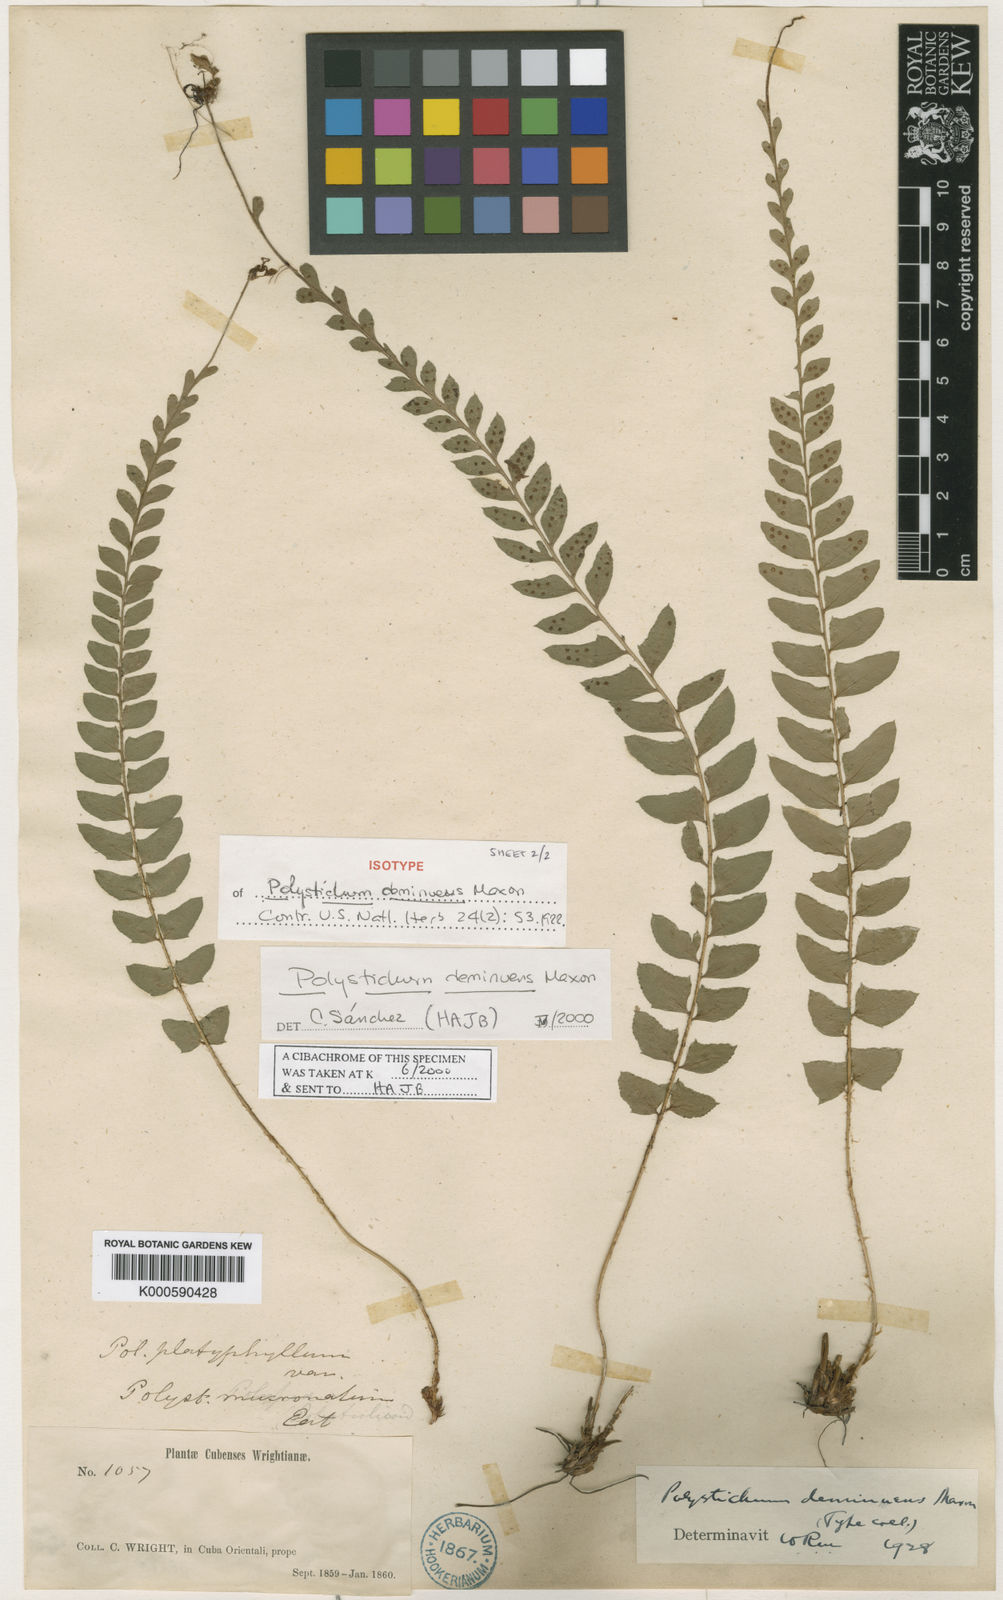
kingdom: Plantae
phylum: Tracheophyta
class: Polypodiopsida
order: Polypodiales
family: Dryopteridaceae
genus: Polystichum
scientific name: Polystichum deminuens
